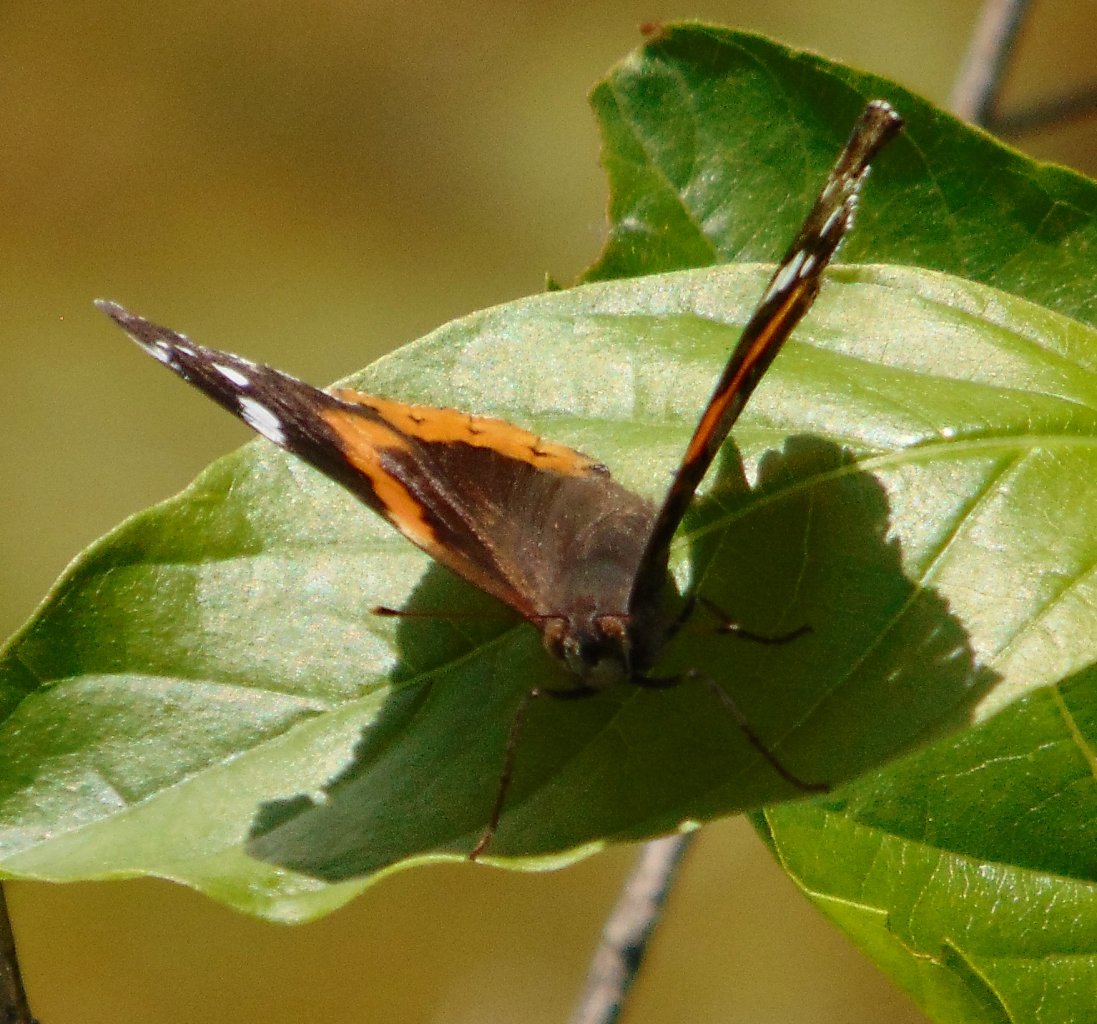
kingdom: Animalia
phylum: Arthropoda
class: Insecta
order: Lepidoptera
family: Nymphalidae
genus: Vanessa
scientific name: Vanessa atalanta
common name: Red Admiral
